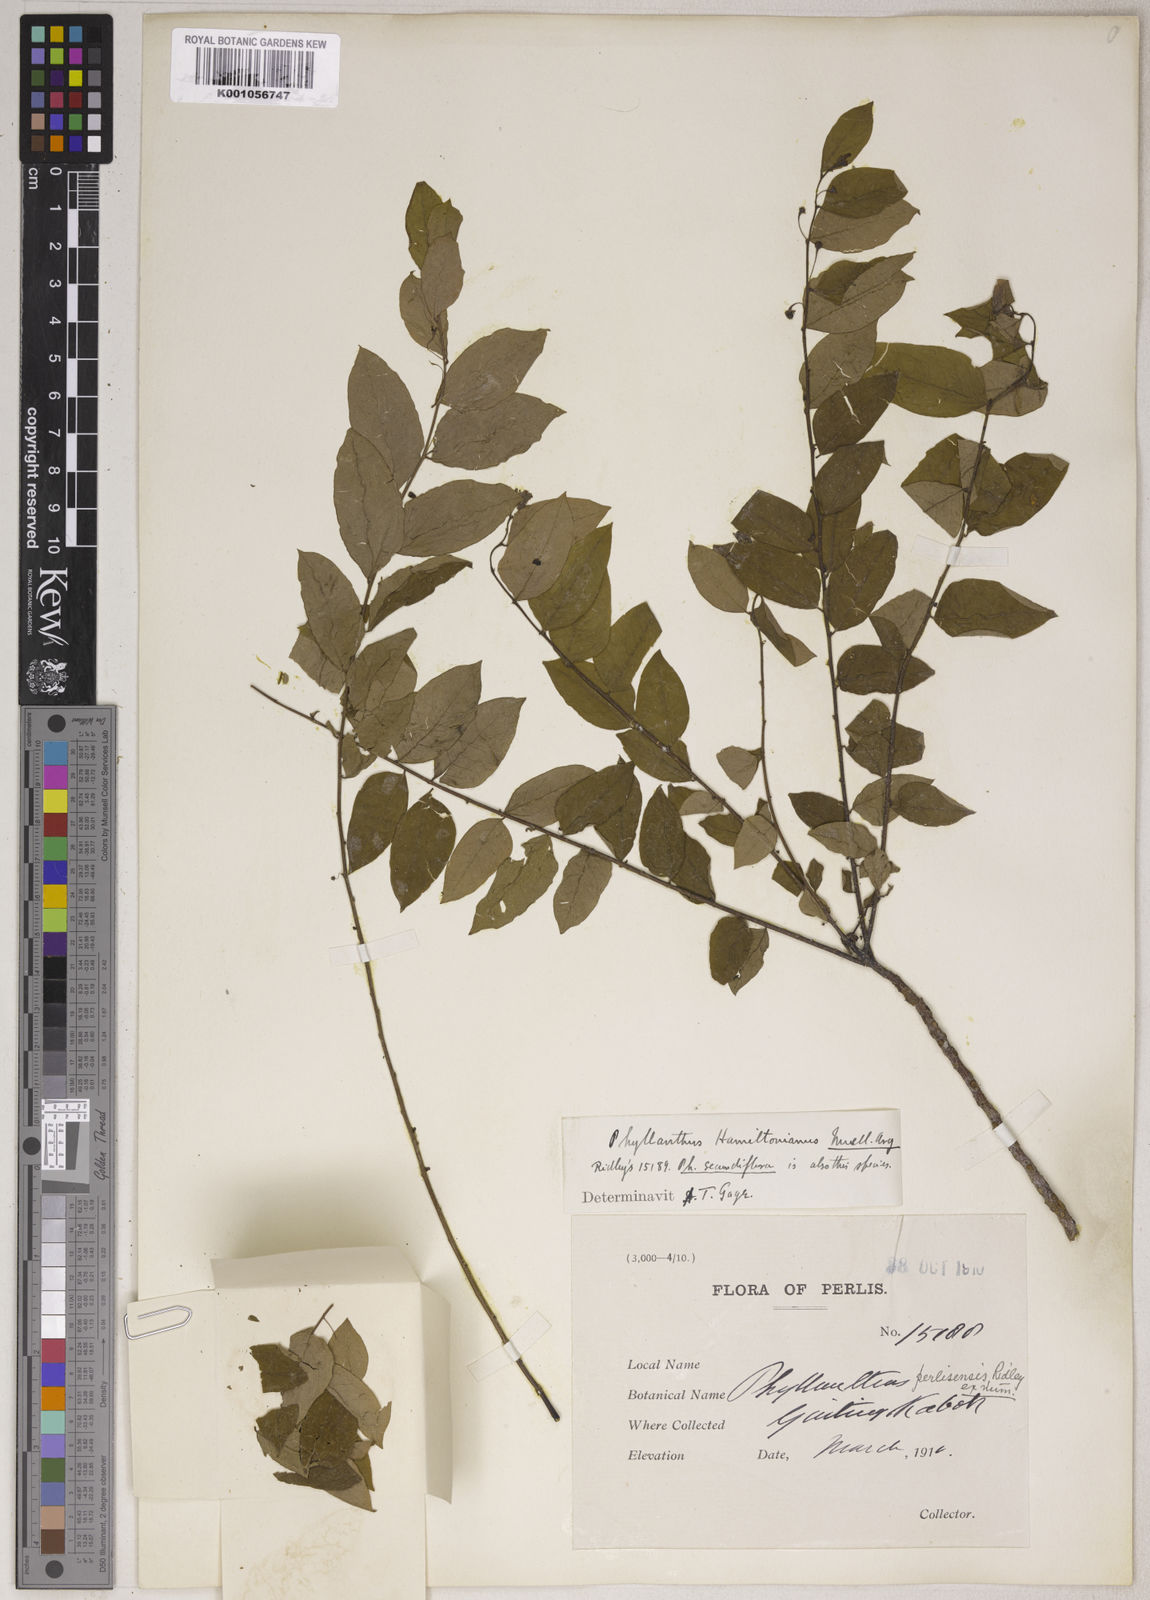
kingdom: Plantae
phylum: Tracheophyta
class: Magnoliopsida
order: Malpighiales
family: Phyllanthaceae
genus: Phyllanthus
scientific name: Phyllanthus
